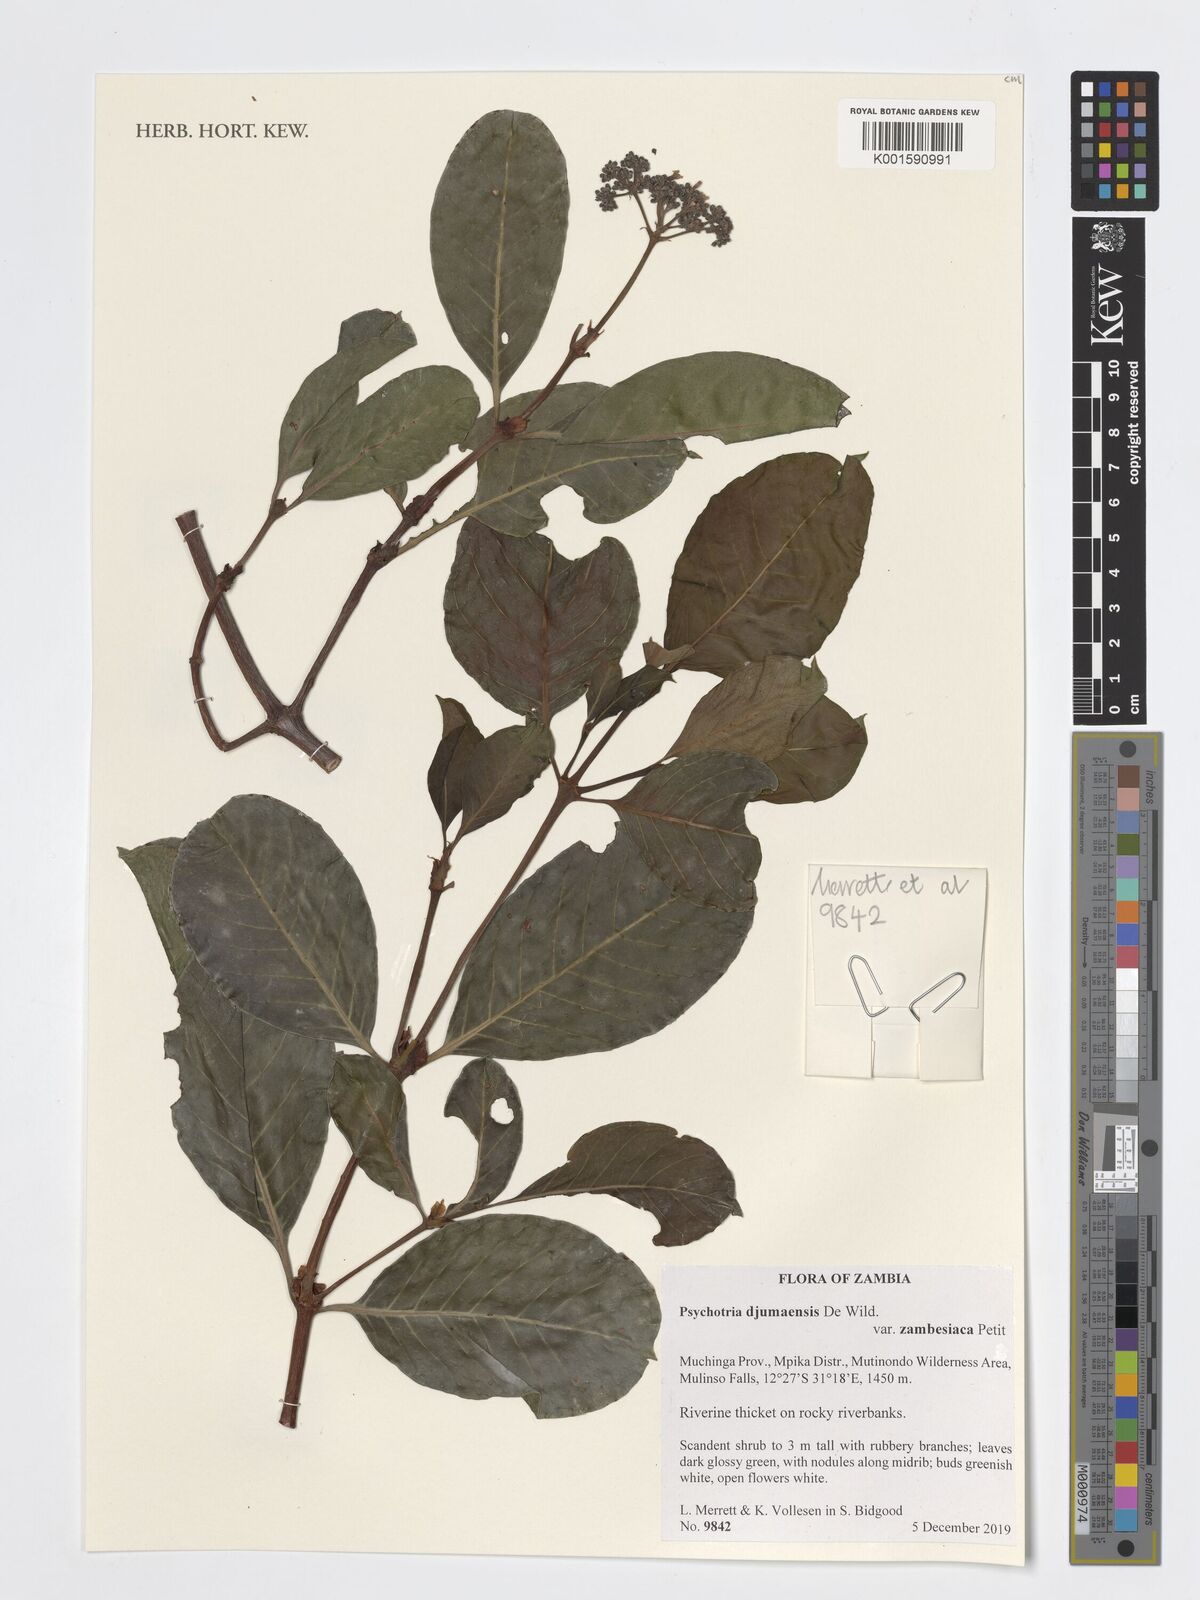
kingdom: Plantae
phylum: Tracheophyta
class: Magnoliopsida
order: Gentianales
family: Rubiaceae
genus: Psychotria
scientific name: Psychotria djumaensis
